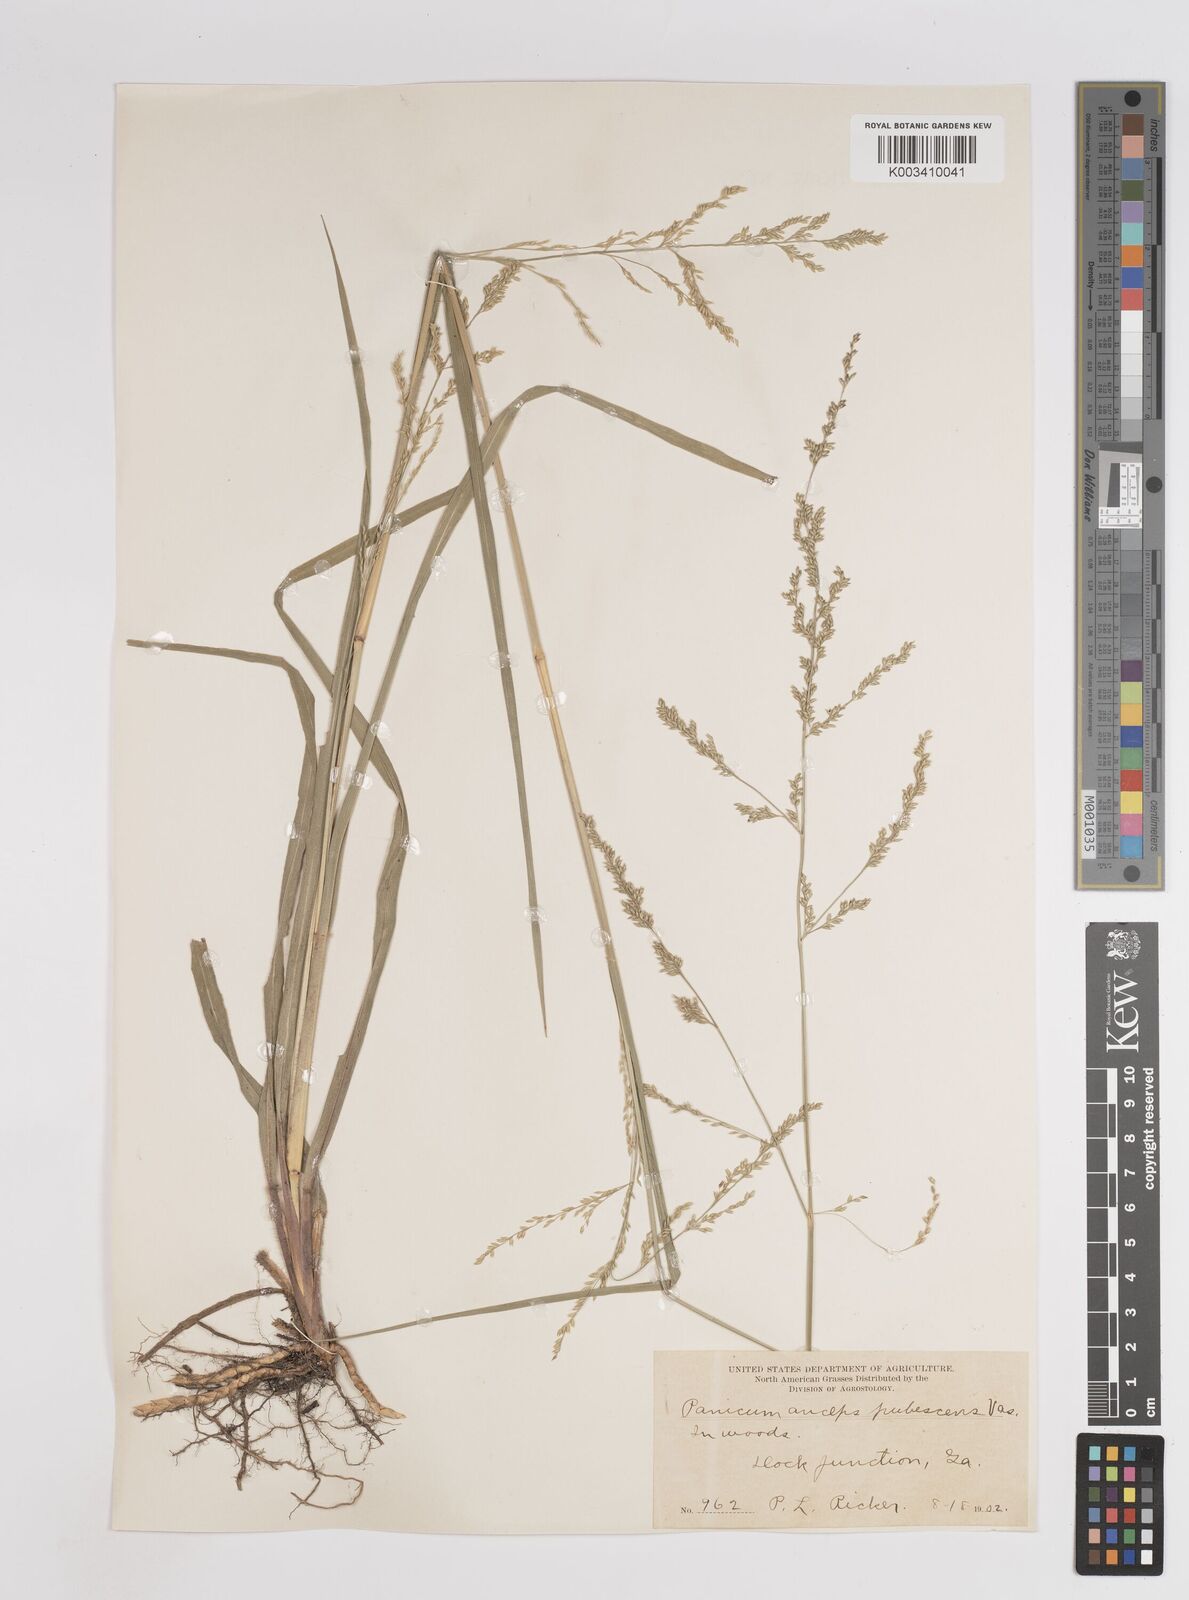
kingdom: Plantae
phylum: Tracheophyta
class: Liliopsida
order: Poales
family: Poaceae
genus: Coleataenia
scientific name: Coleataenia anceps
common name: Beaked panic grass
